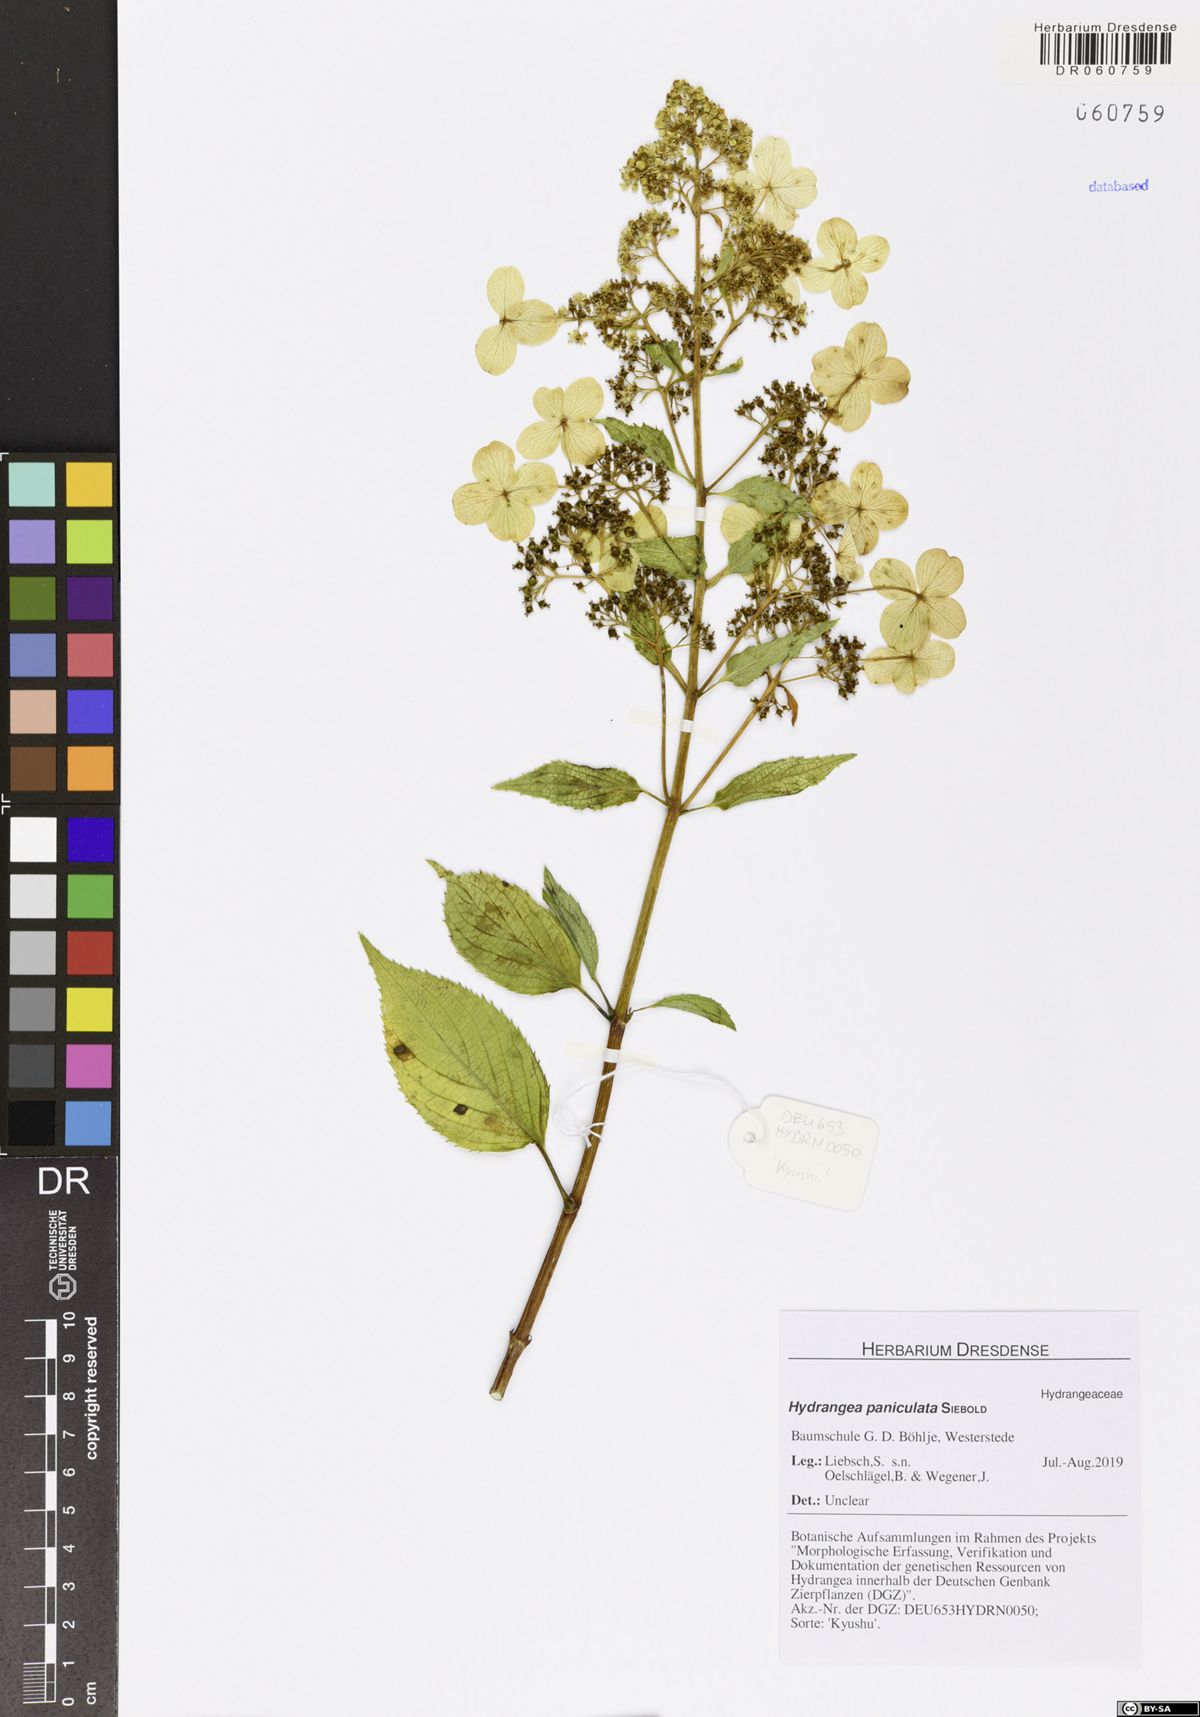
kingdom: Plantae
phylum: Tracheophyta
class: Magnoliopsida
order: Cornales
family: Hydrangeaceae
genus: Hydrangea
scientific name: Hydrangea paniculata
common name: Panicled hydrangea
